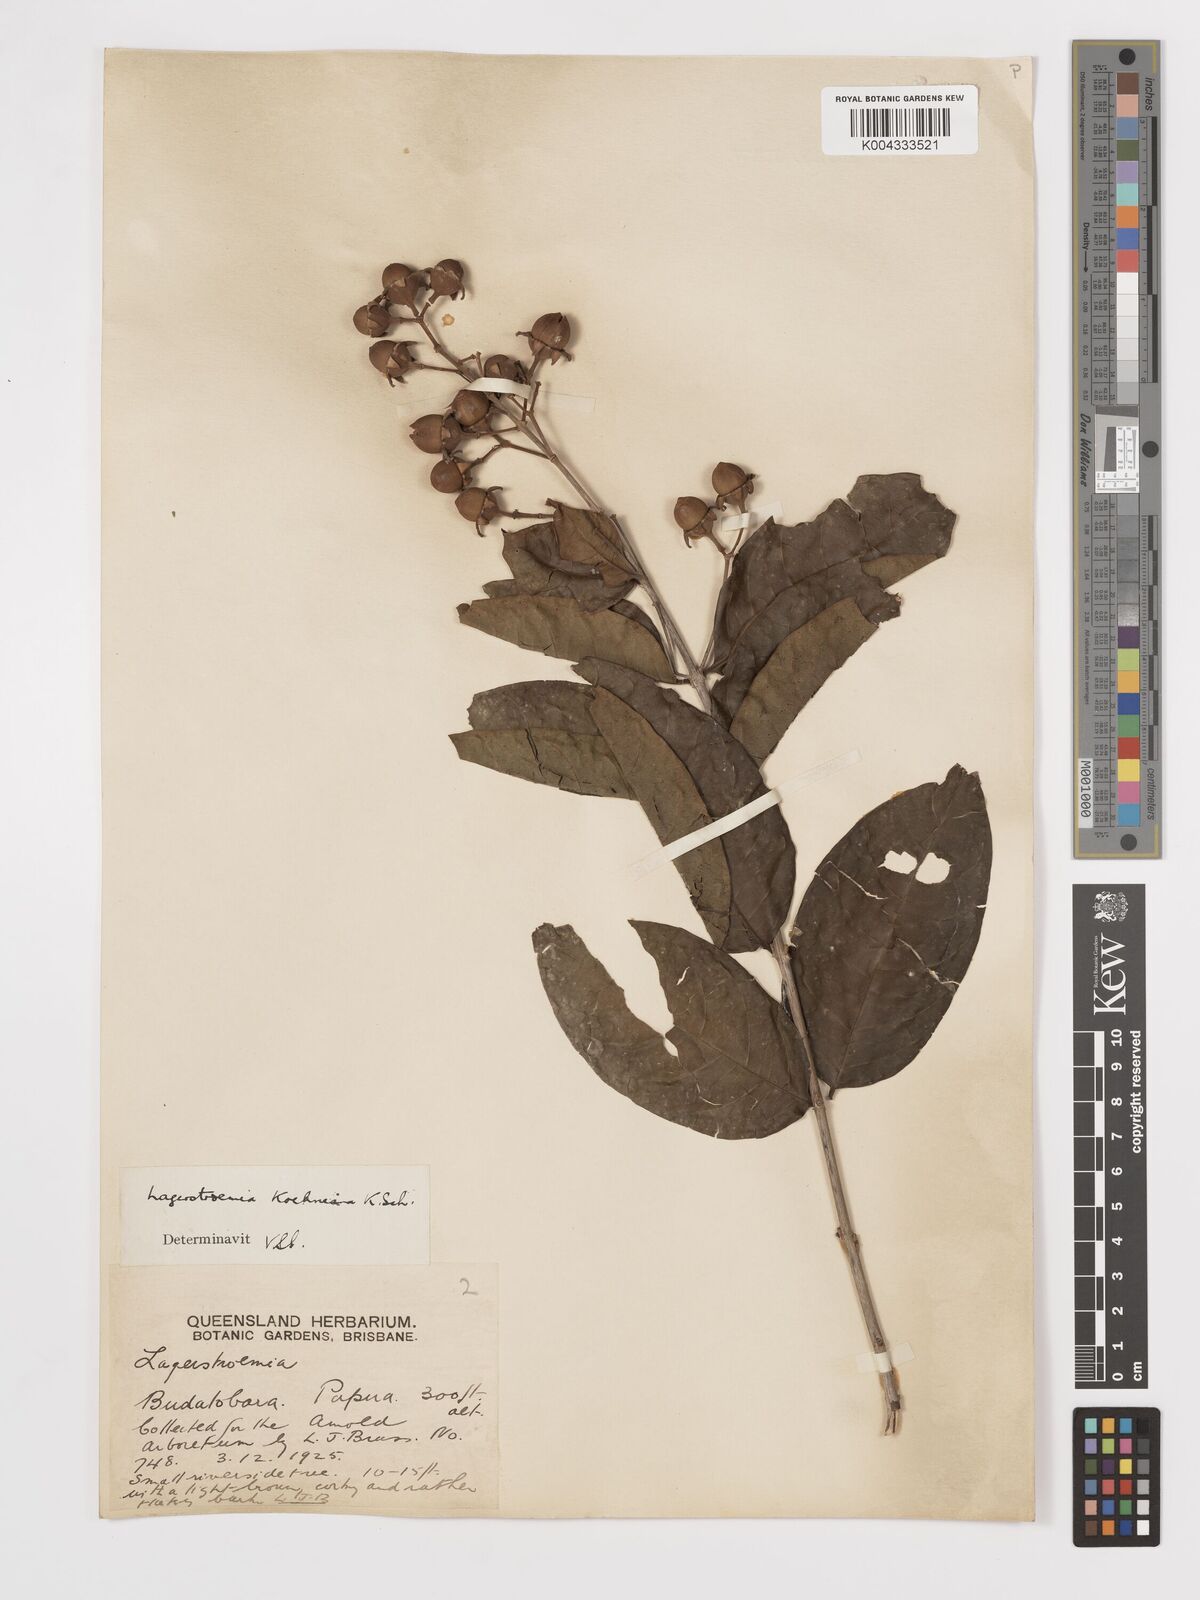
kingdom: Plantae
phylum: Tracheophyta
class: Magnoliopsida
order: Myrtales
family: Lythraceae
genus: Lagerstroemia
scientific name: Lagerstroemia celebica
